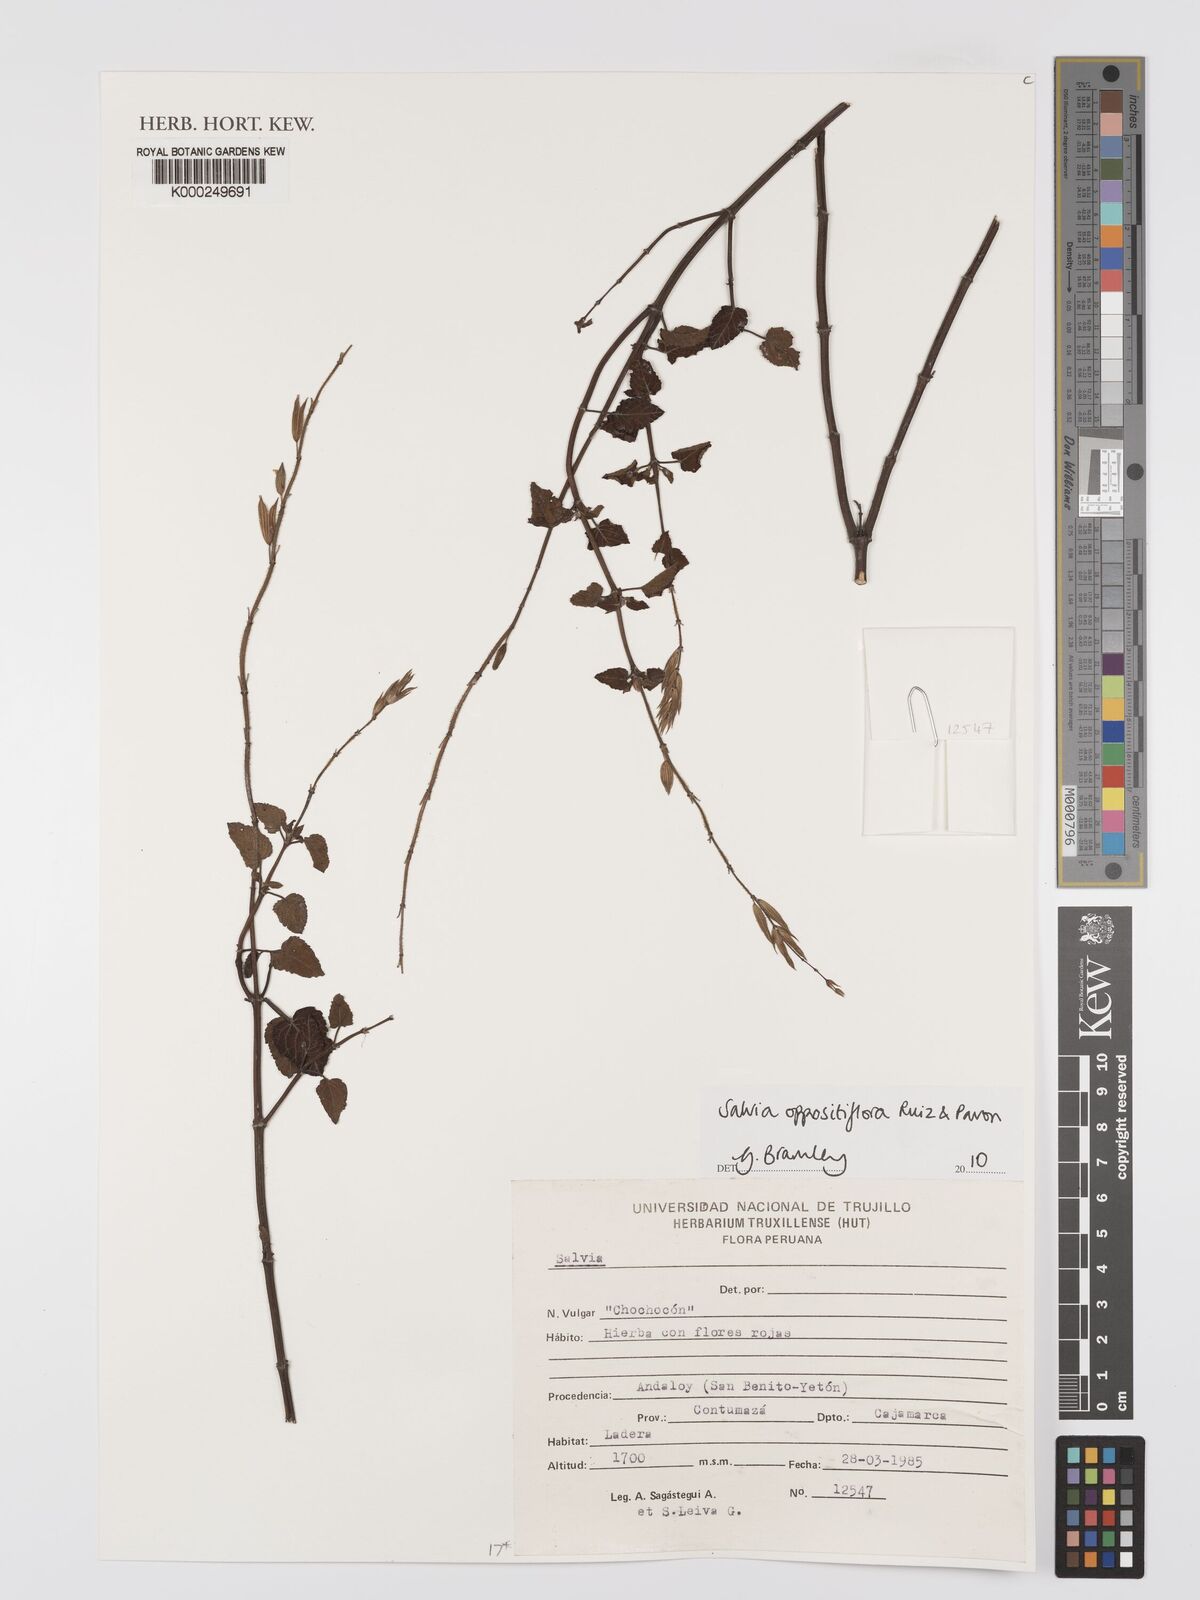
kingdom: Plantae
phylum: Tracheophyta
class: Magnoliopsida
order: Lamiales
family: Lamiaceae
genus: Salvia
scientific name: Salvia oppositiflora
